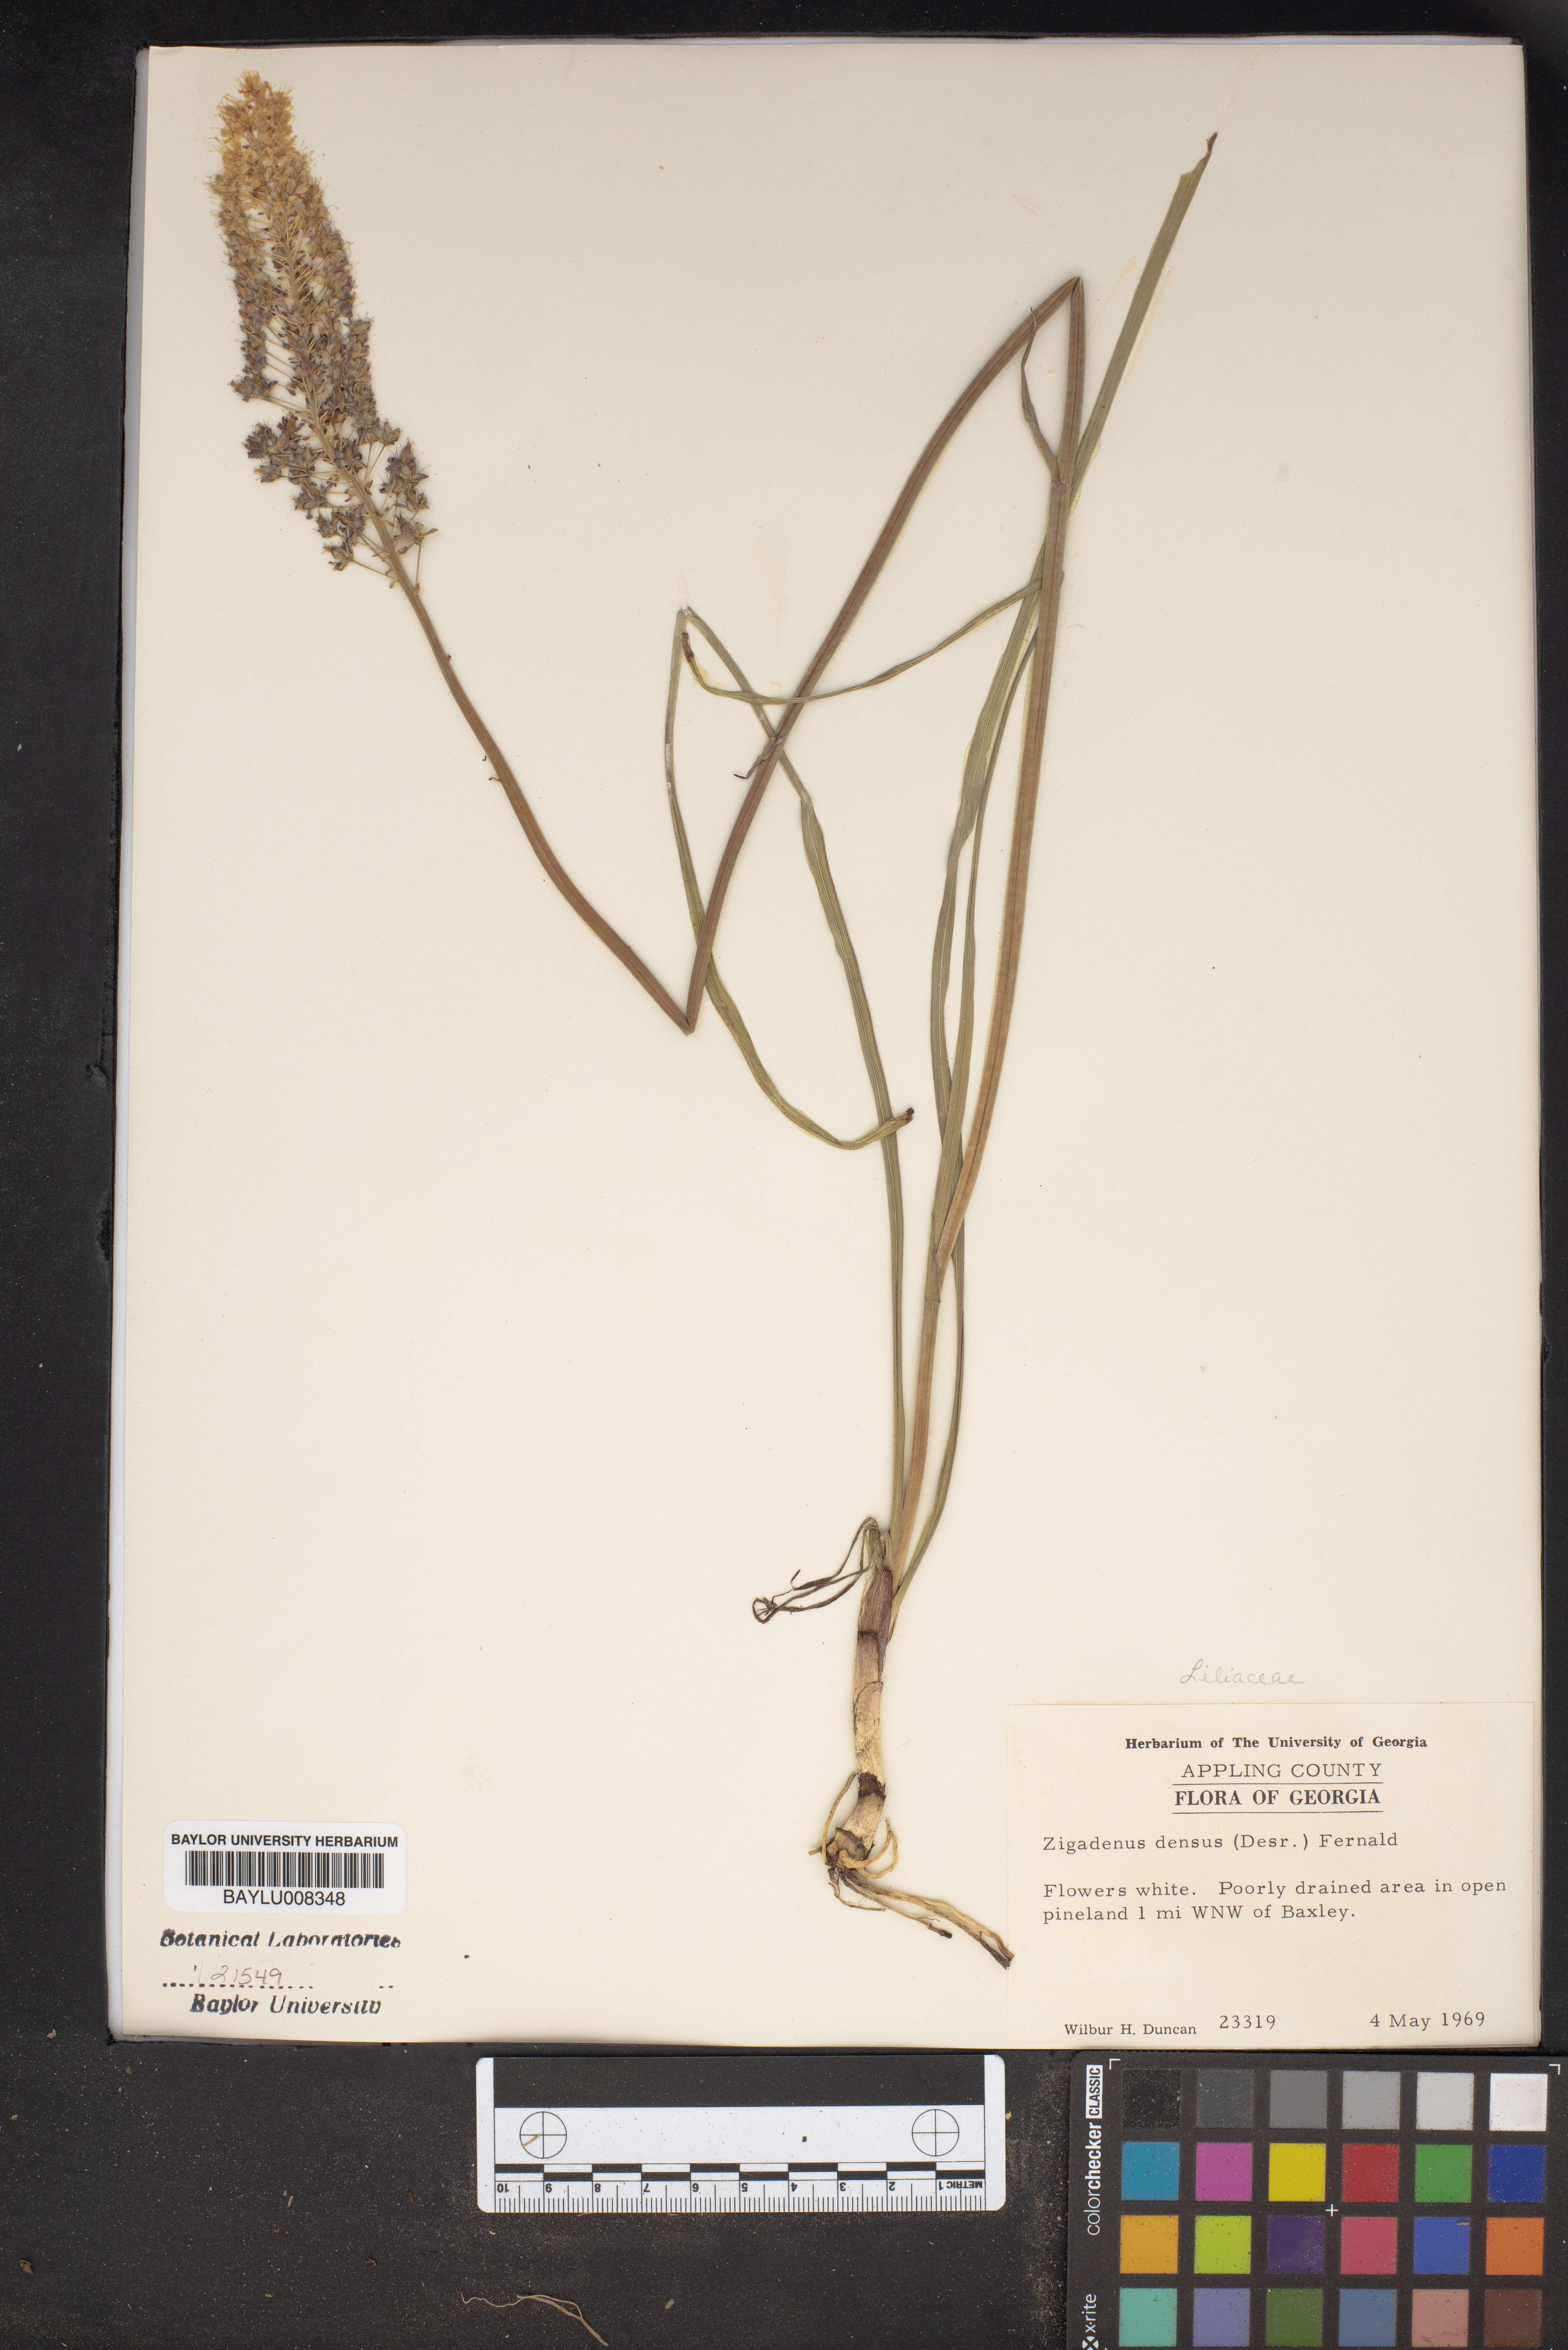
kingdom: Plantae
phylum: Tracheophyta
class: Liliopsida
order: Liliales
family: Melanthiaceae
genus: Stenanthium
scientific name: Stenanthium densum
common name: Crow-poison
